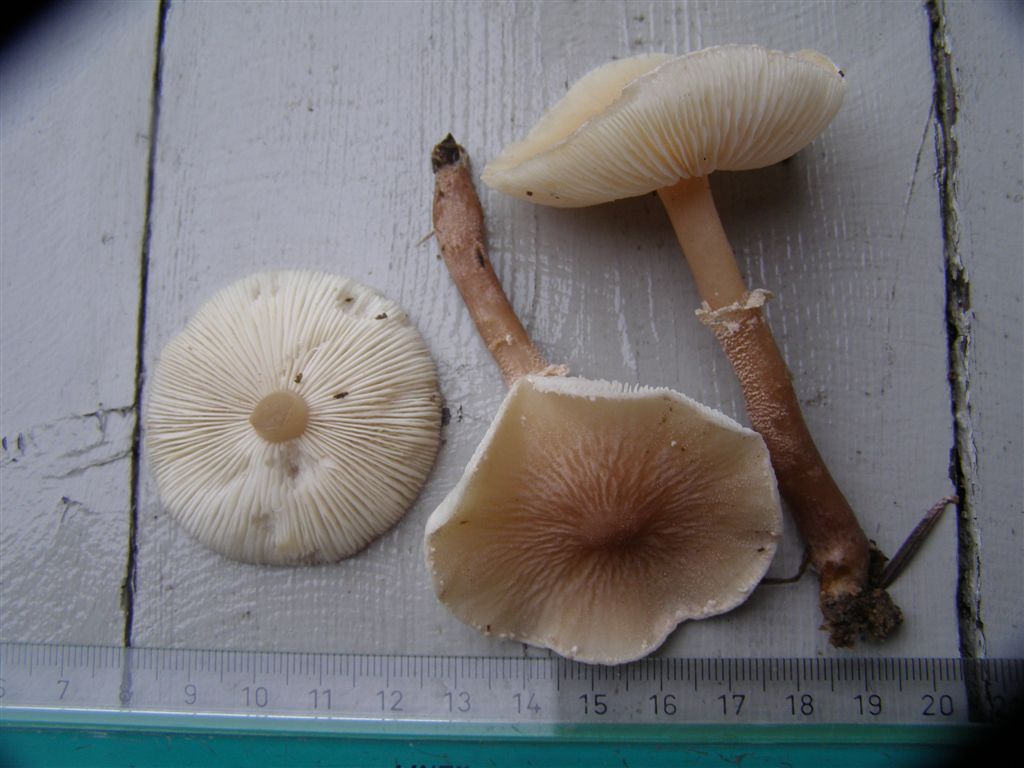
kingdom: Fungi
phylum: Basidiomycota
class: Agaricomycetes
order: Agaricales
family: Tricholomataceae
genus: Cystoderma
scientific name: Cystoderma carcharias
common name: rødgrå grynhat
